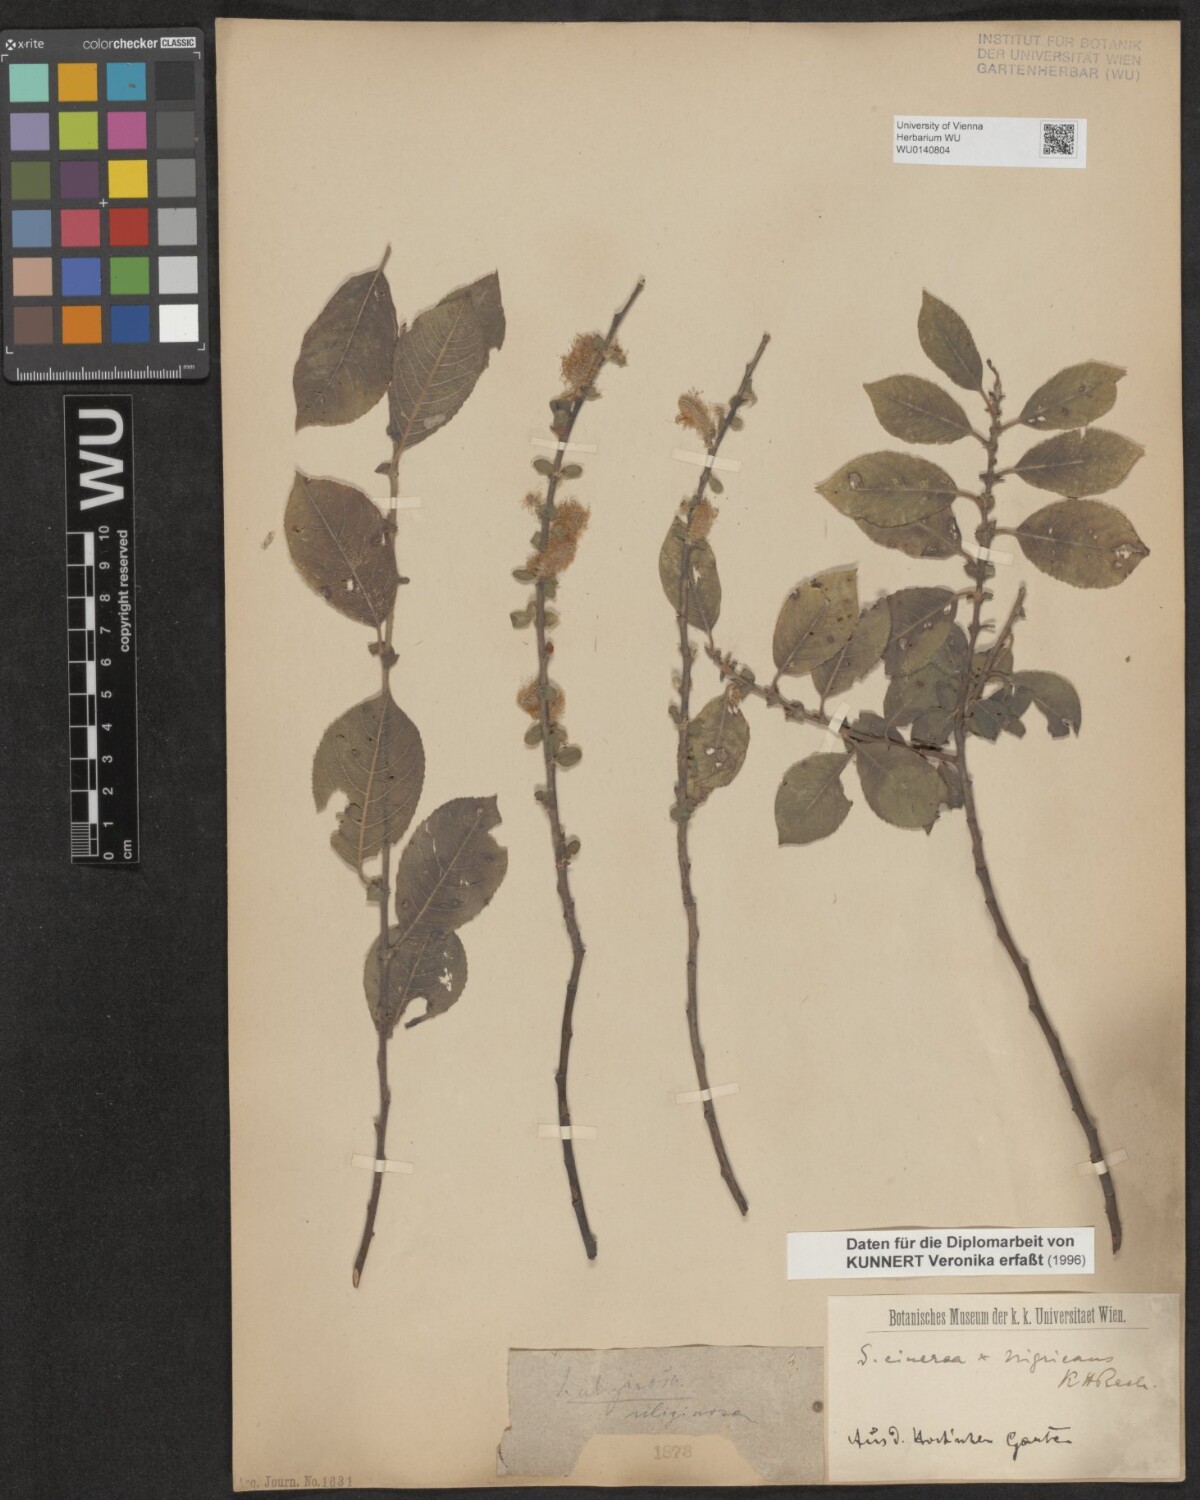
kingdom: Plantae
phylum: Tracheophyta
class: Magnoliopsida
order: Malpighiales
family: Salicaceae
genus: Salix
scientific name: Salix aurita
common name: Eared willow
